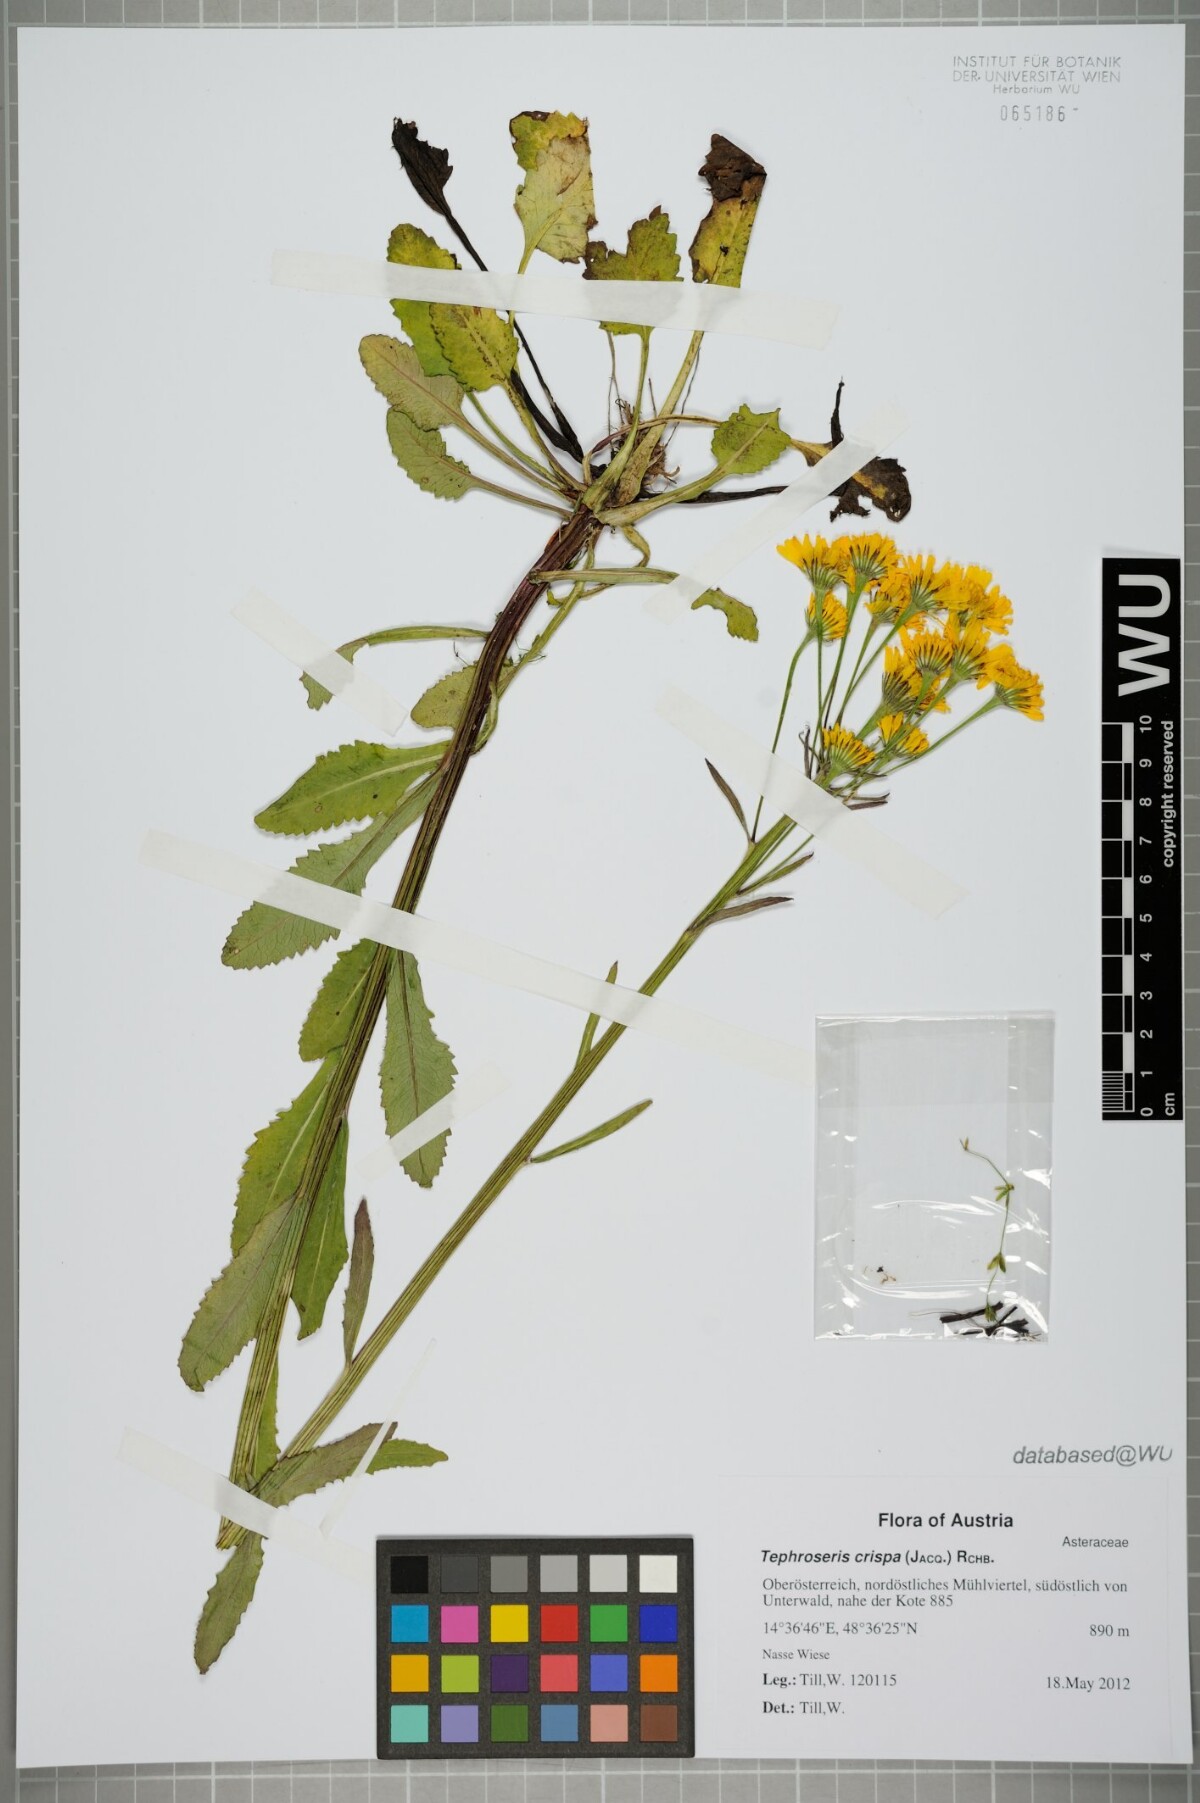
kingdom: Plantae
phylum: Tracheophyta
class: Magnoliopsida
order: Asterales
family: Asteraceae
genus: Tephroseris
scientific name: Tephroseris crispa
